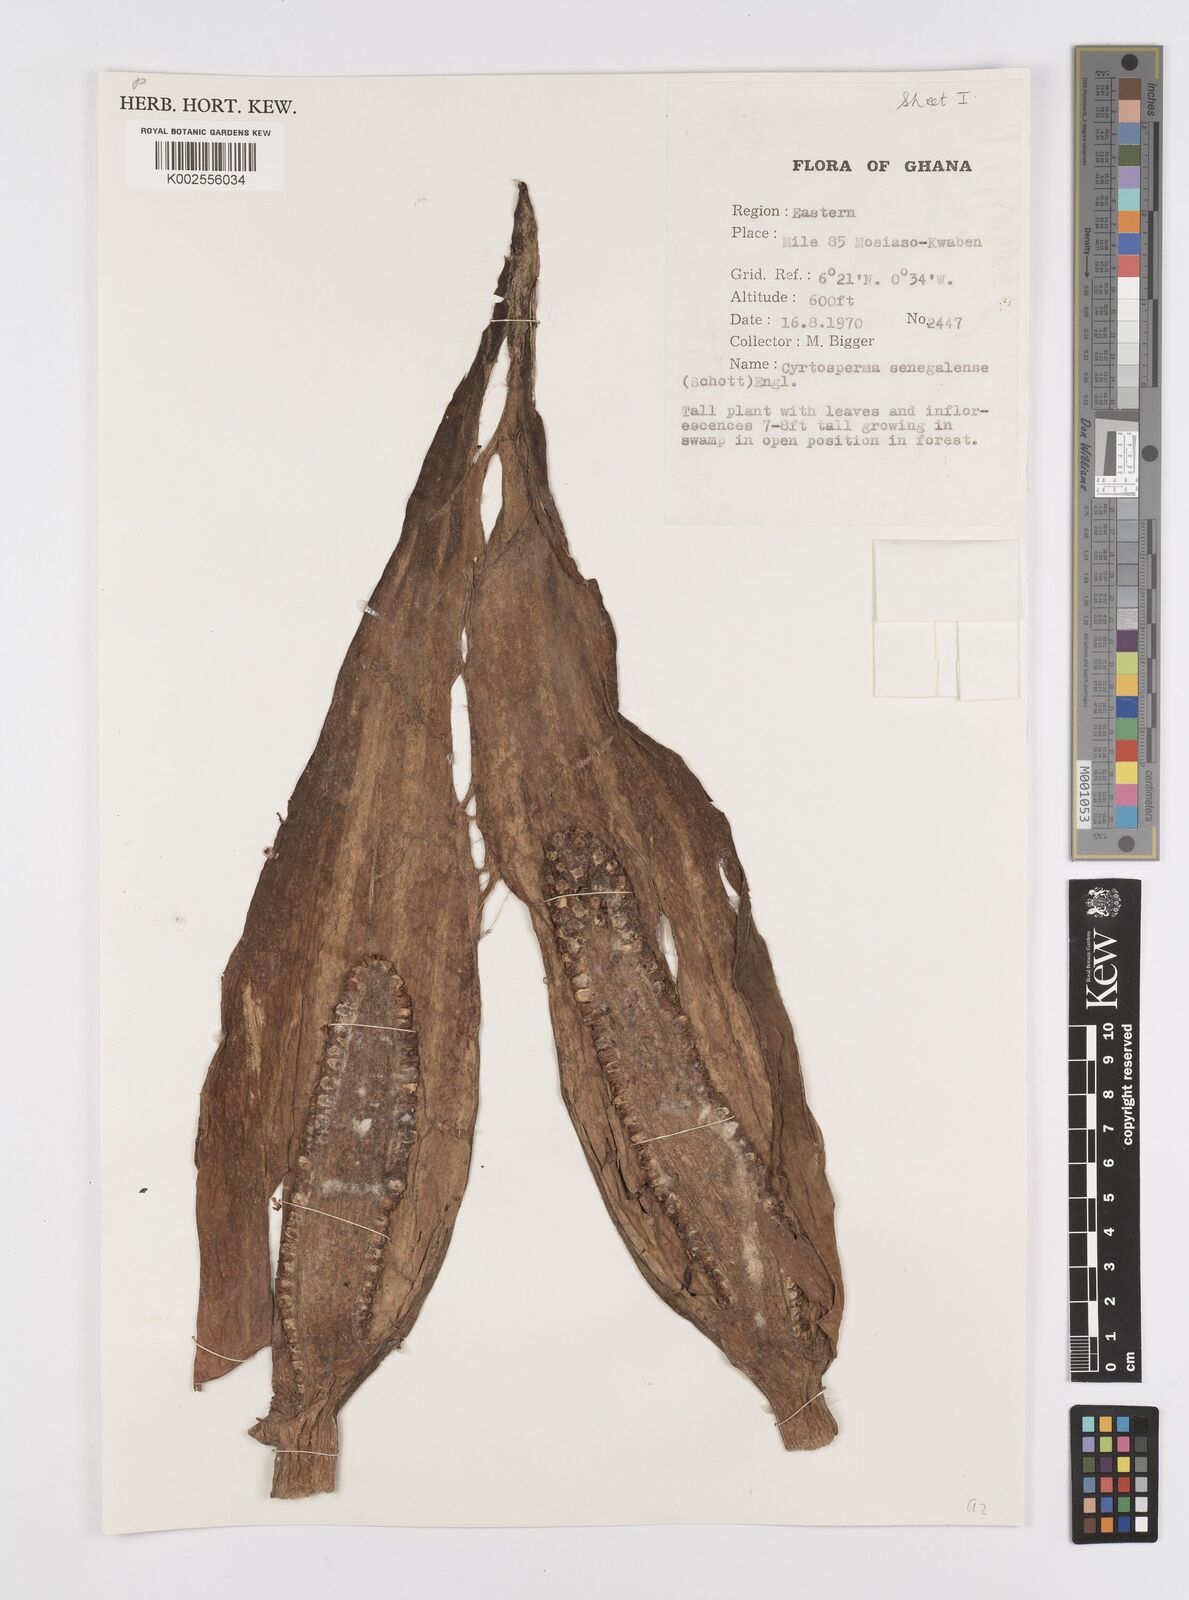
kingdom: Plantae
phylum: Tracheophyta
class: Liliopsida
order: Alismatales
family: Araceae
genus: Lasimorpha
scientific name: Lasimorpha senegalensis
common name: Swamp arum
